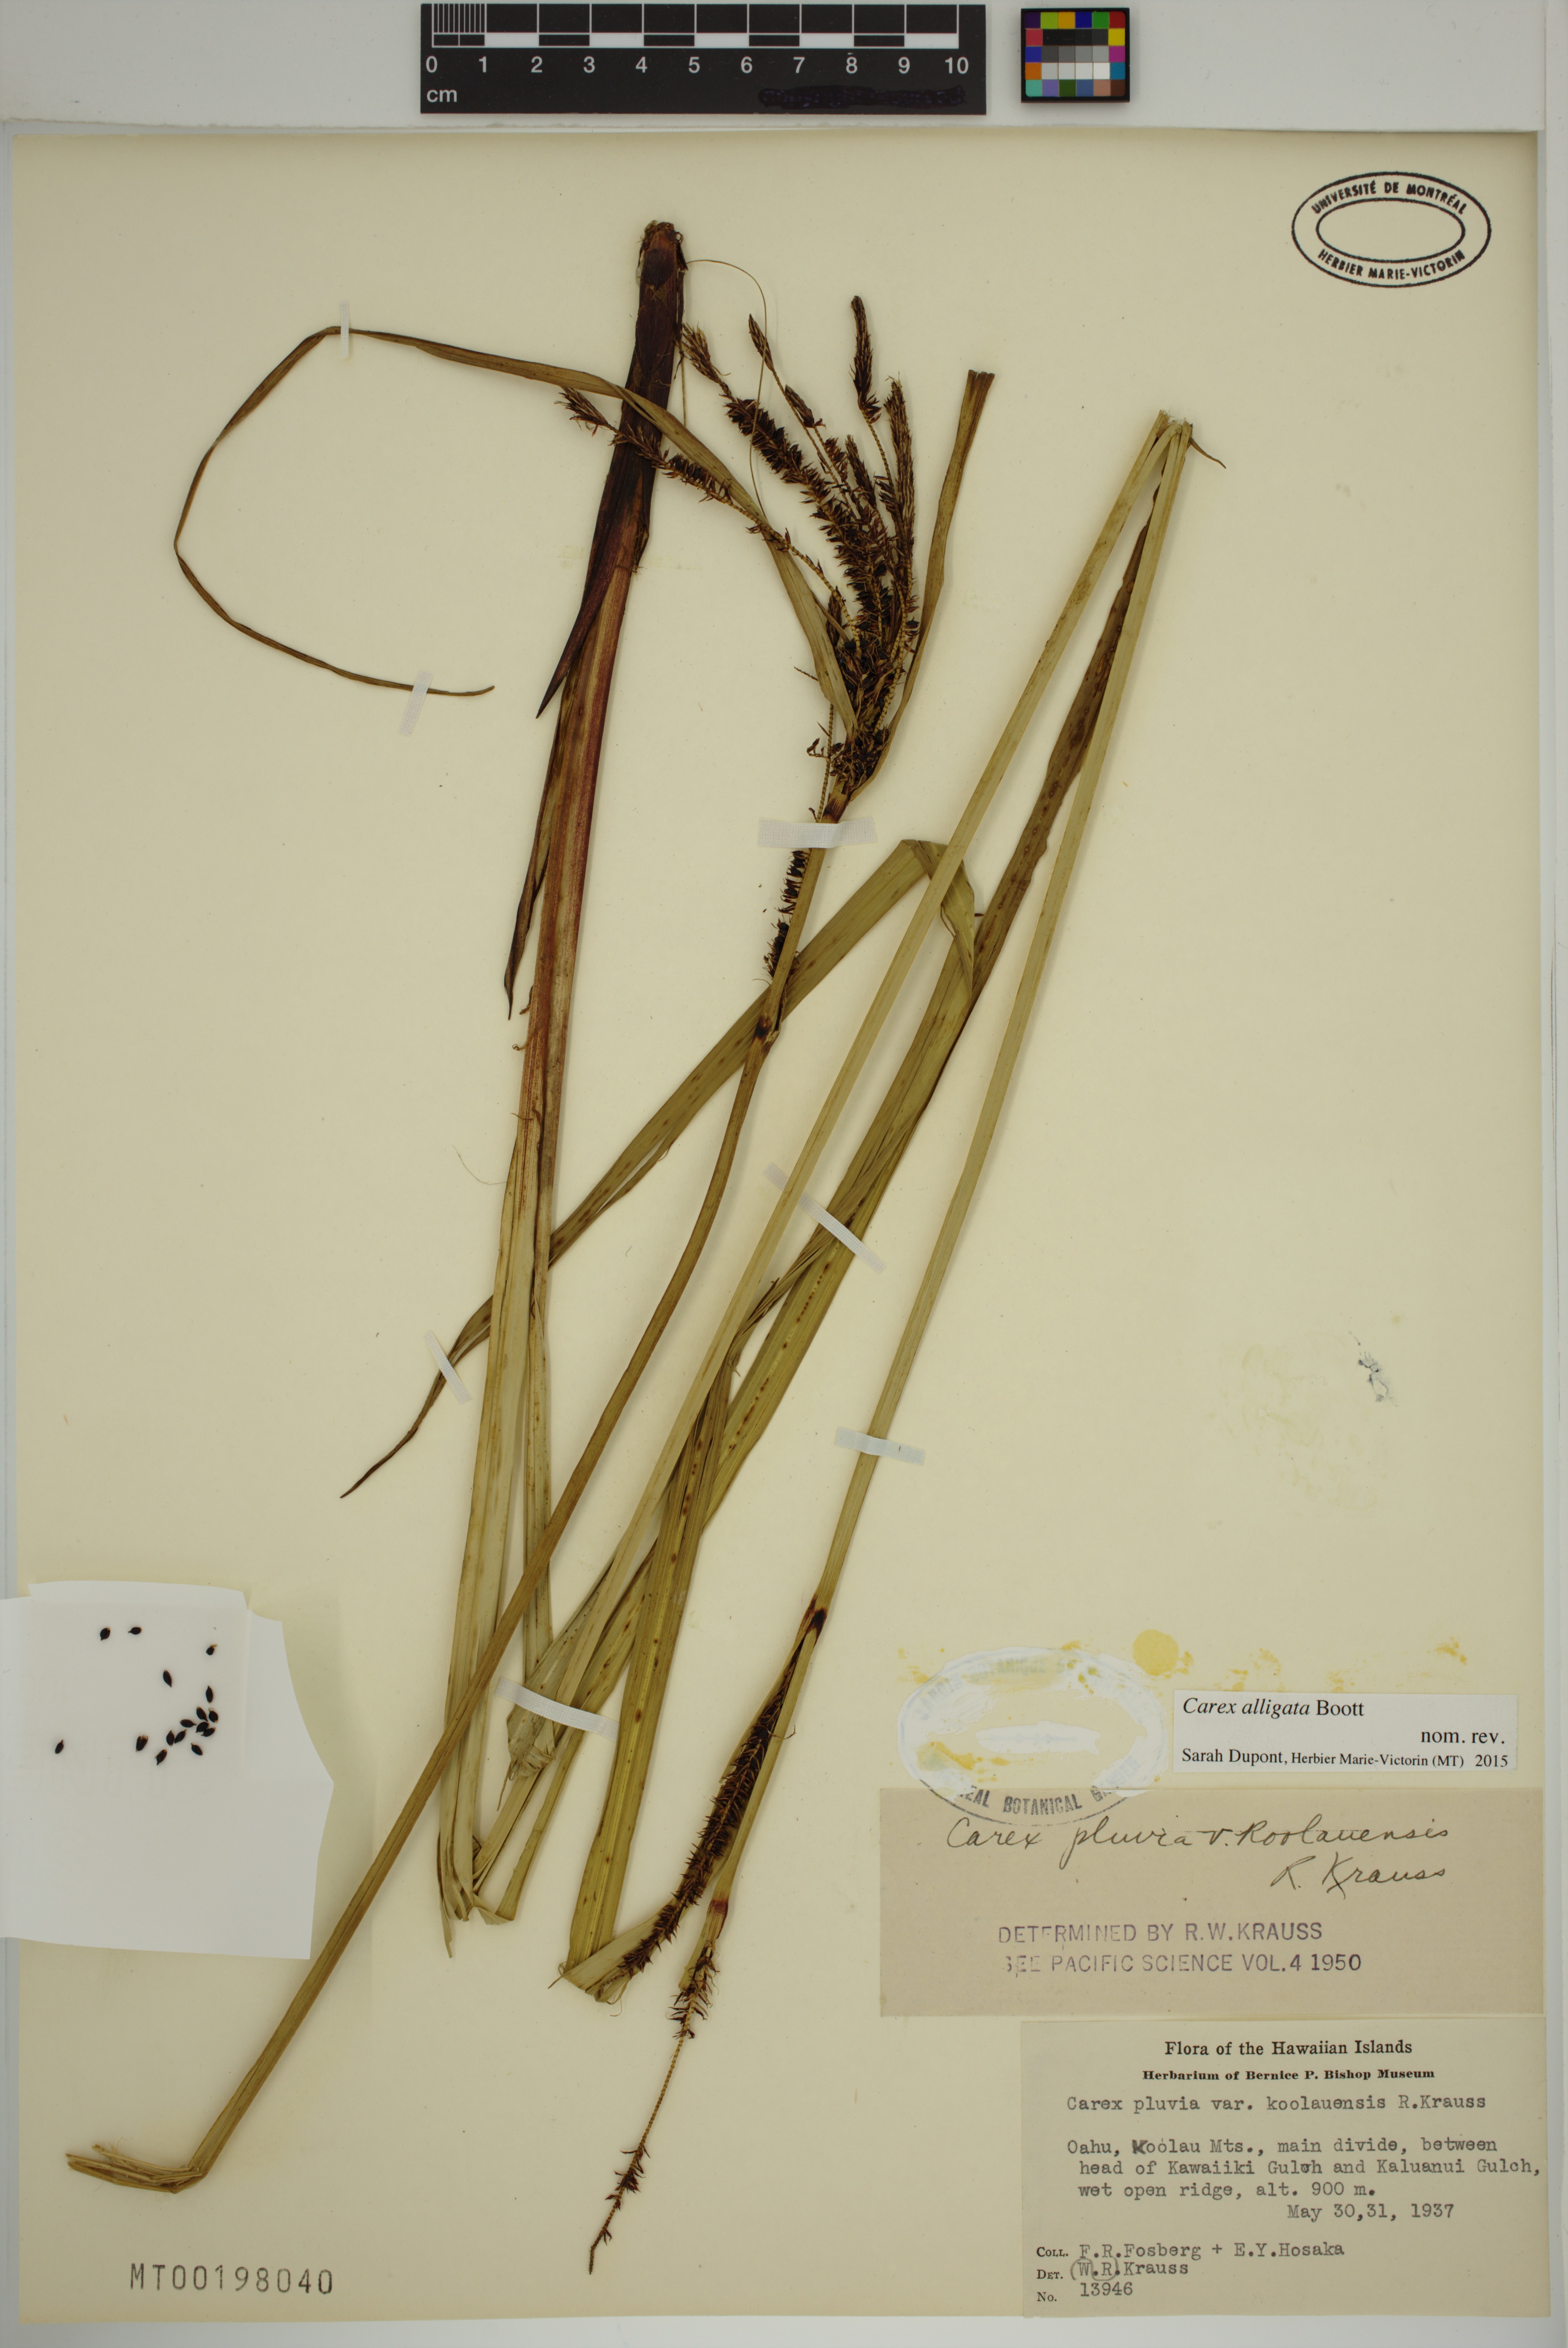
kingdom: Plantae
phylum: Tracheophyta
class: Liliopsida
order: Poales
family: Cyperaceae
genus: Carex
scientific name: Carex alligata
